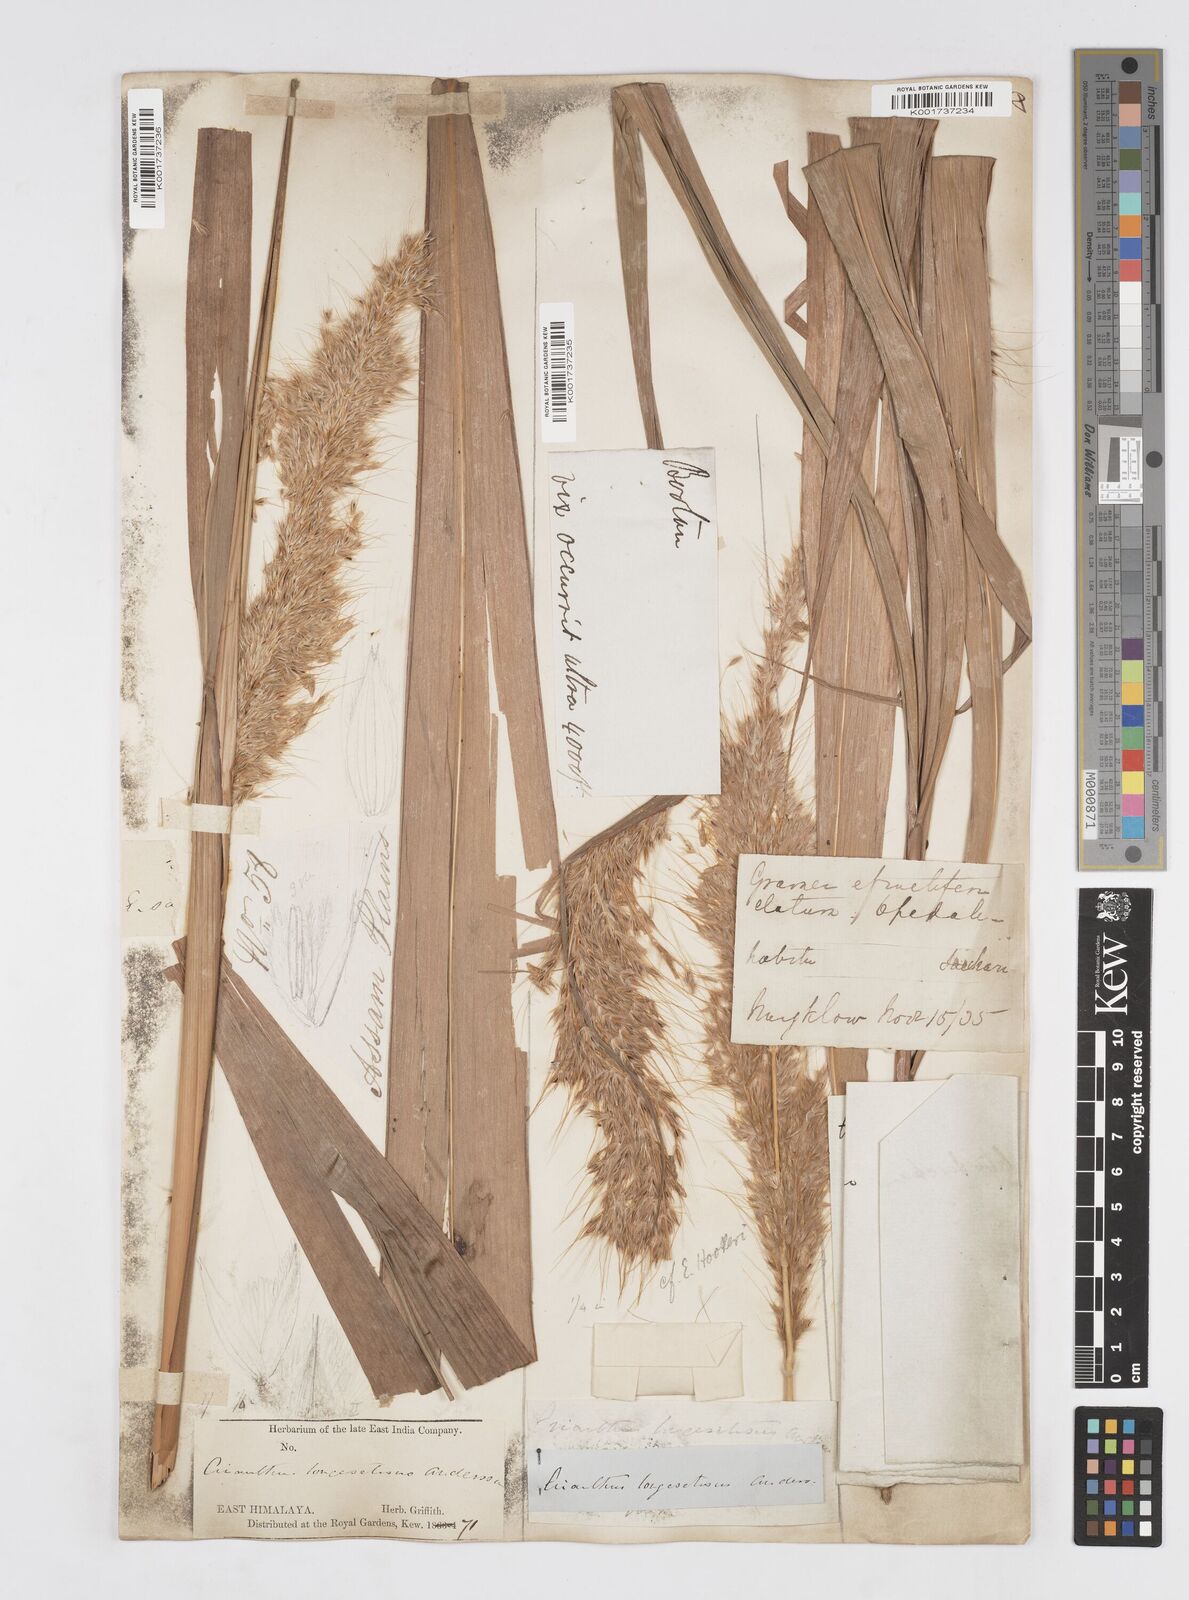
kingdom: Plantae
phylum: Tracheophyta
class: Liliopsida
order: Poales
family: Poaceae
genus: Melinis
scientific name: Melinis longiseta
